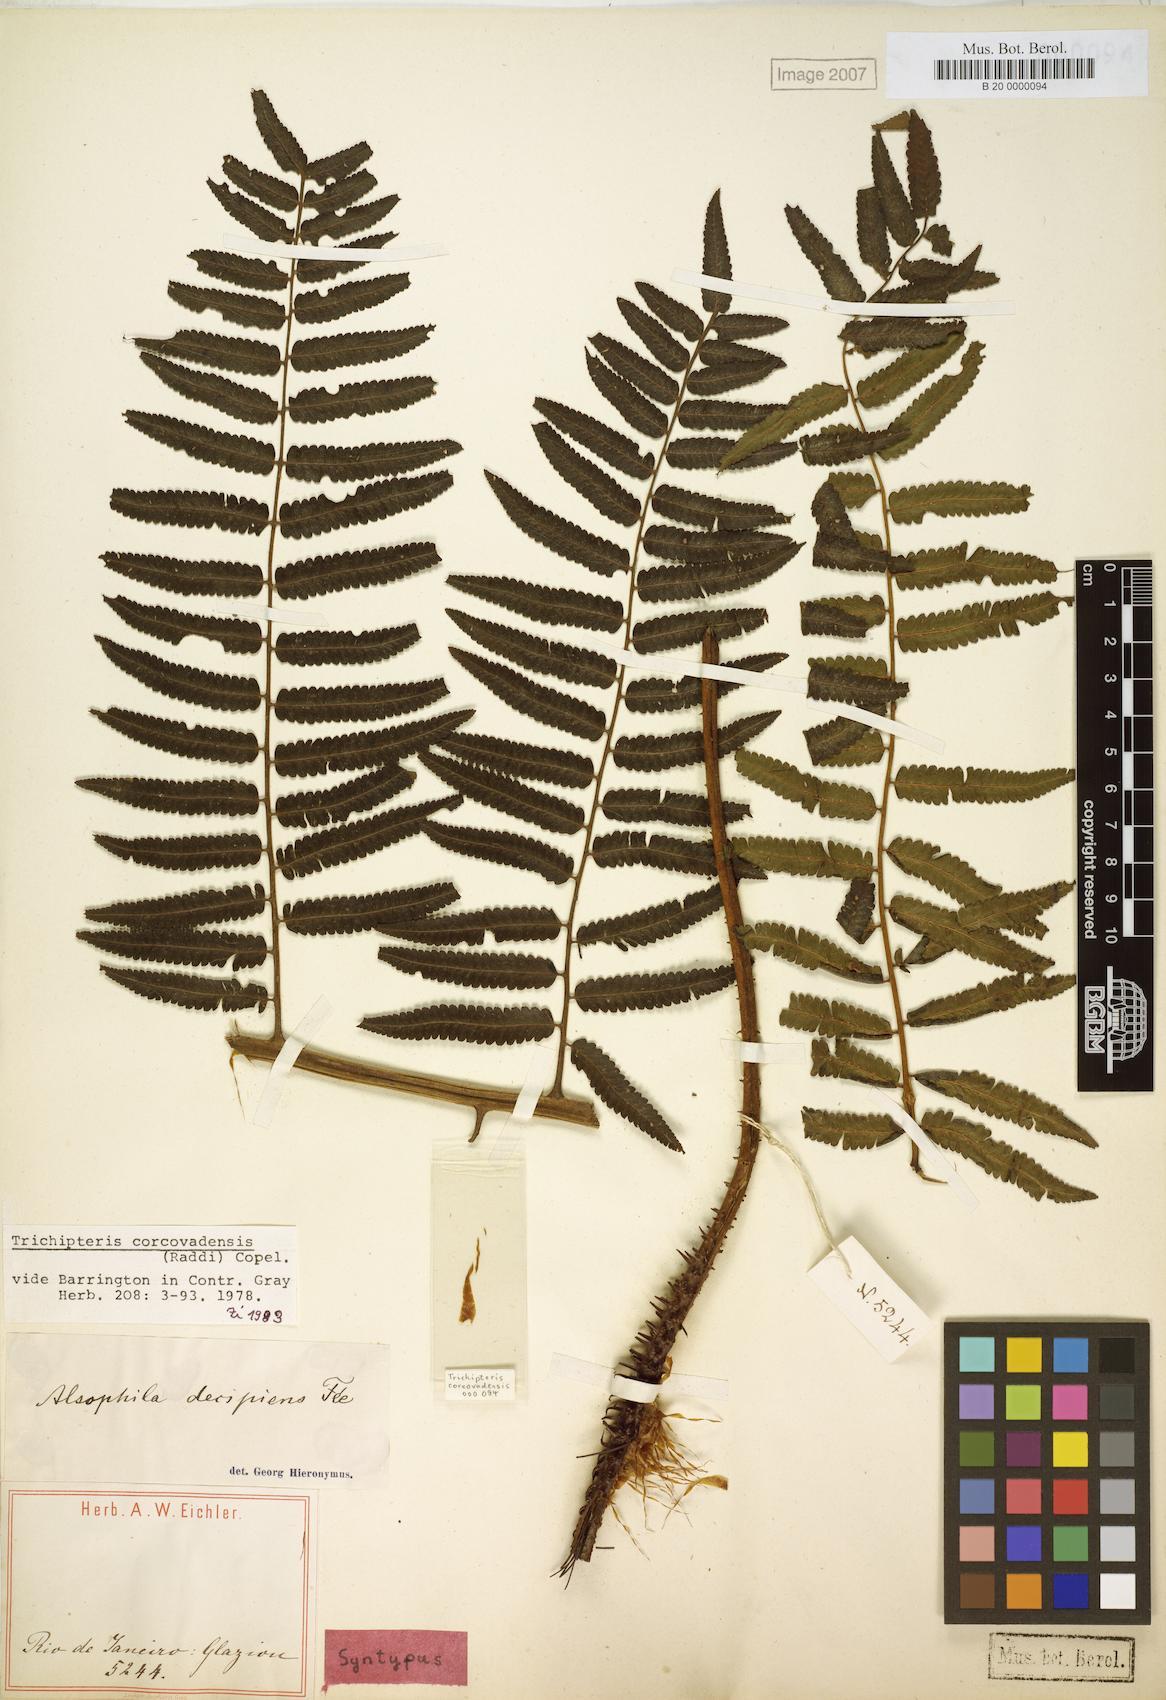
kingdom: Plantae
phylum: Tracheophyta
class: Polypodiopsida
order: Cyatheales
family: Cyatheaceae
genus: Cyathea
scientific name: Cyathea corcovadensis
